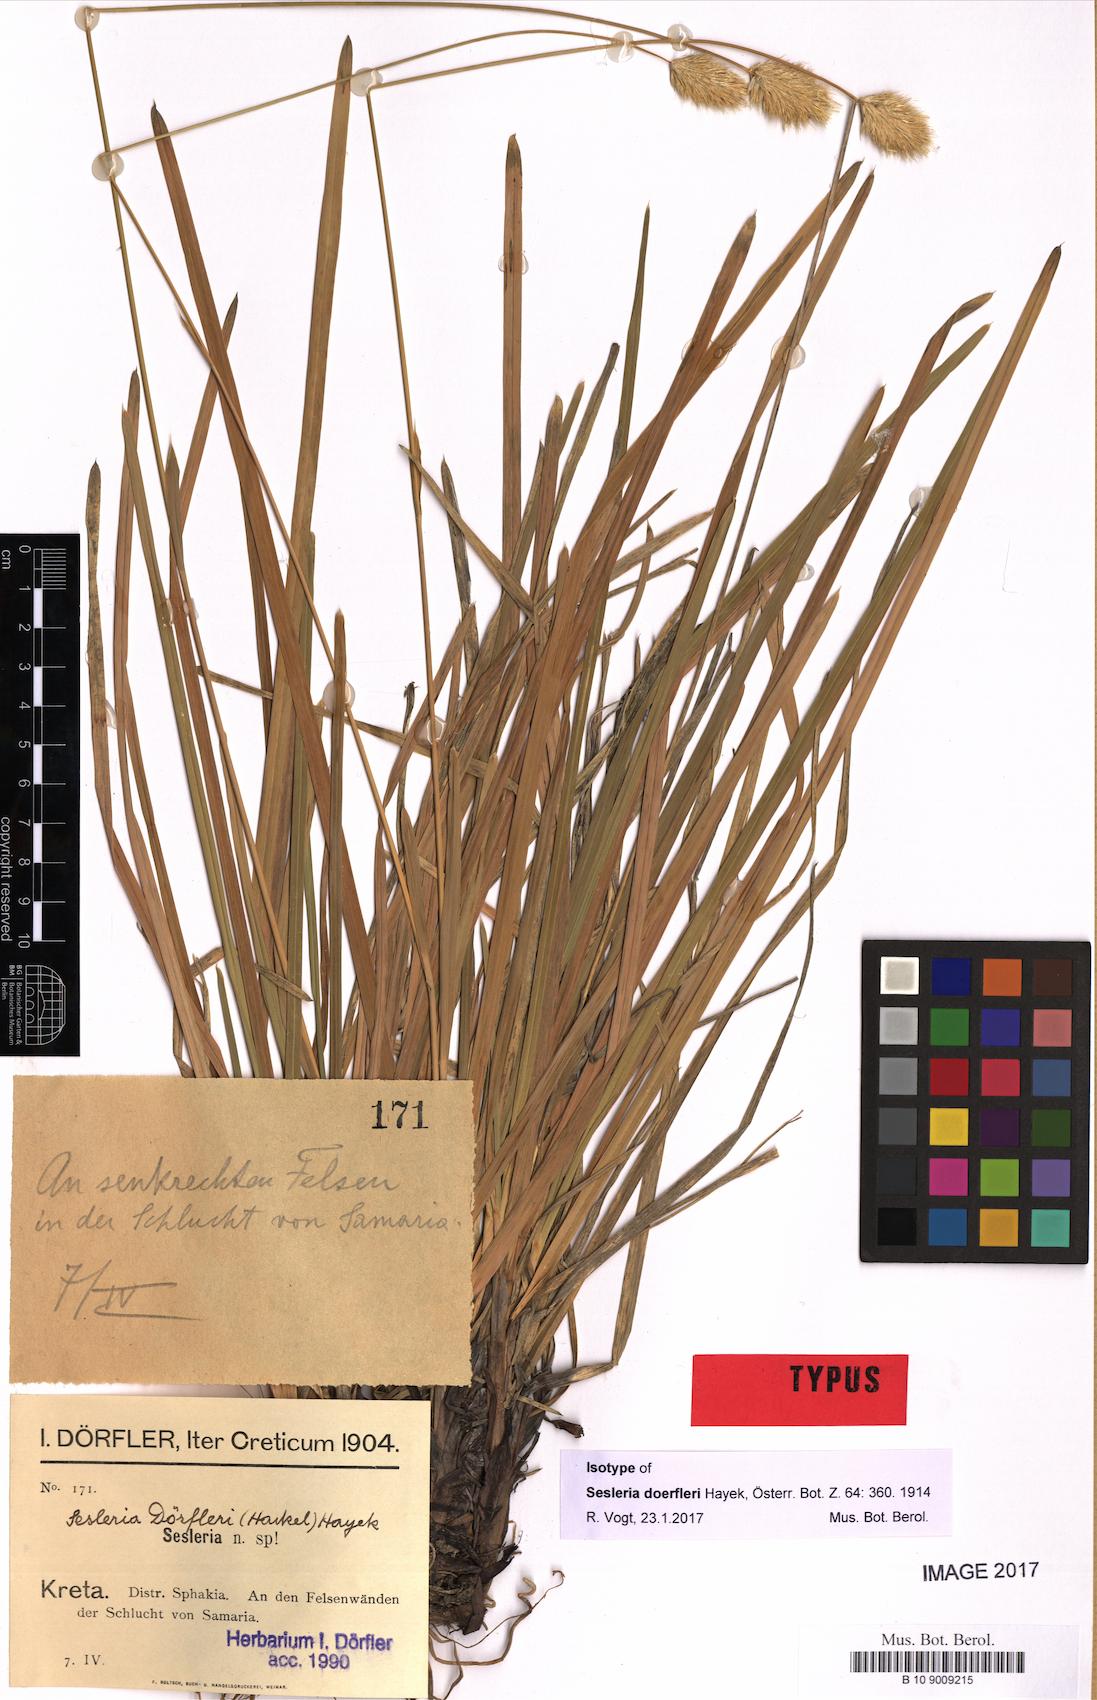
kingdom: Plantae
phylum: Tracheophyta
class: Liliopsida
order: Poales
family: Poaceae
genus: Sesleria
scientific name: Sesleria doerfleri
